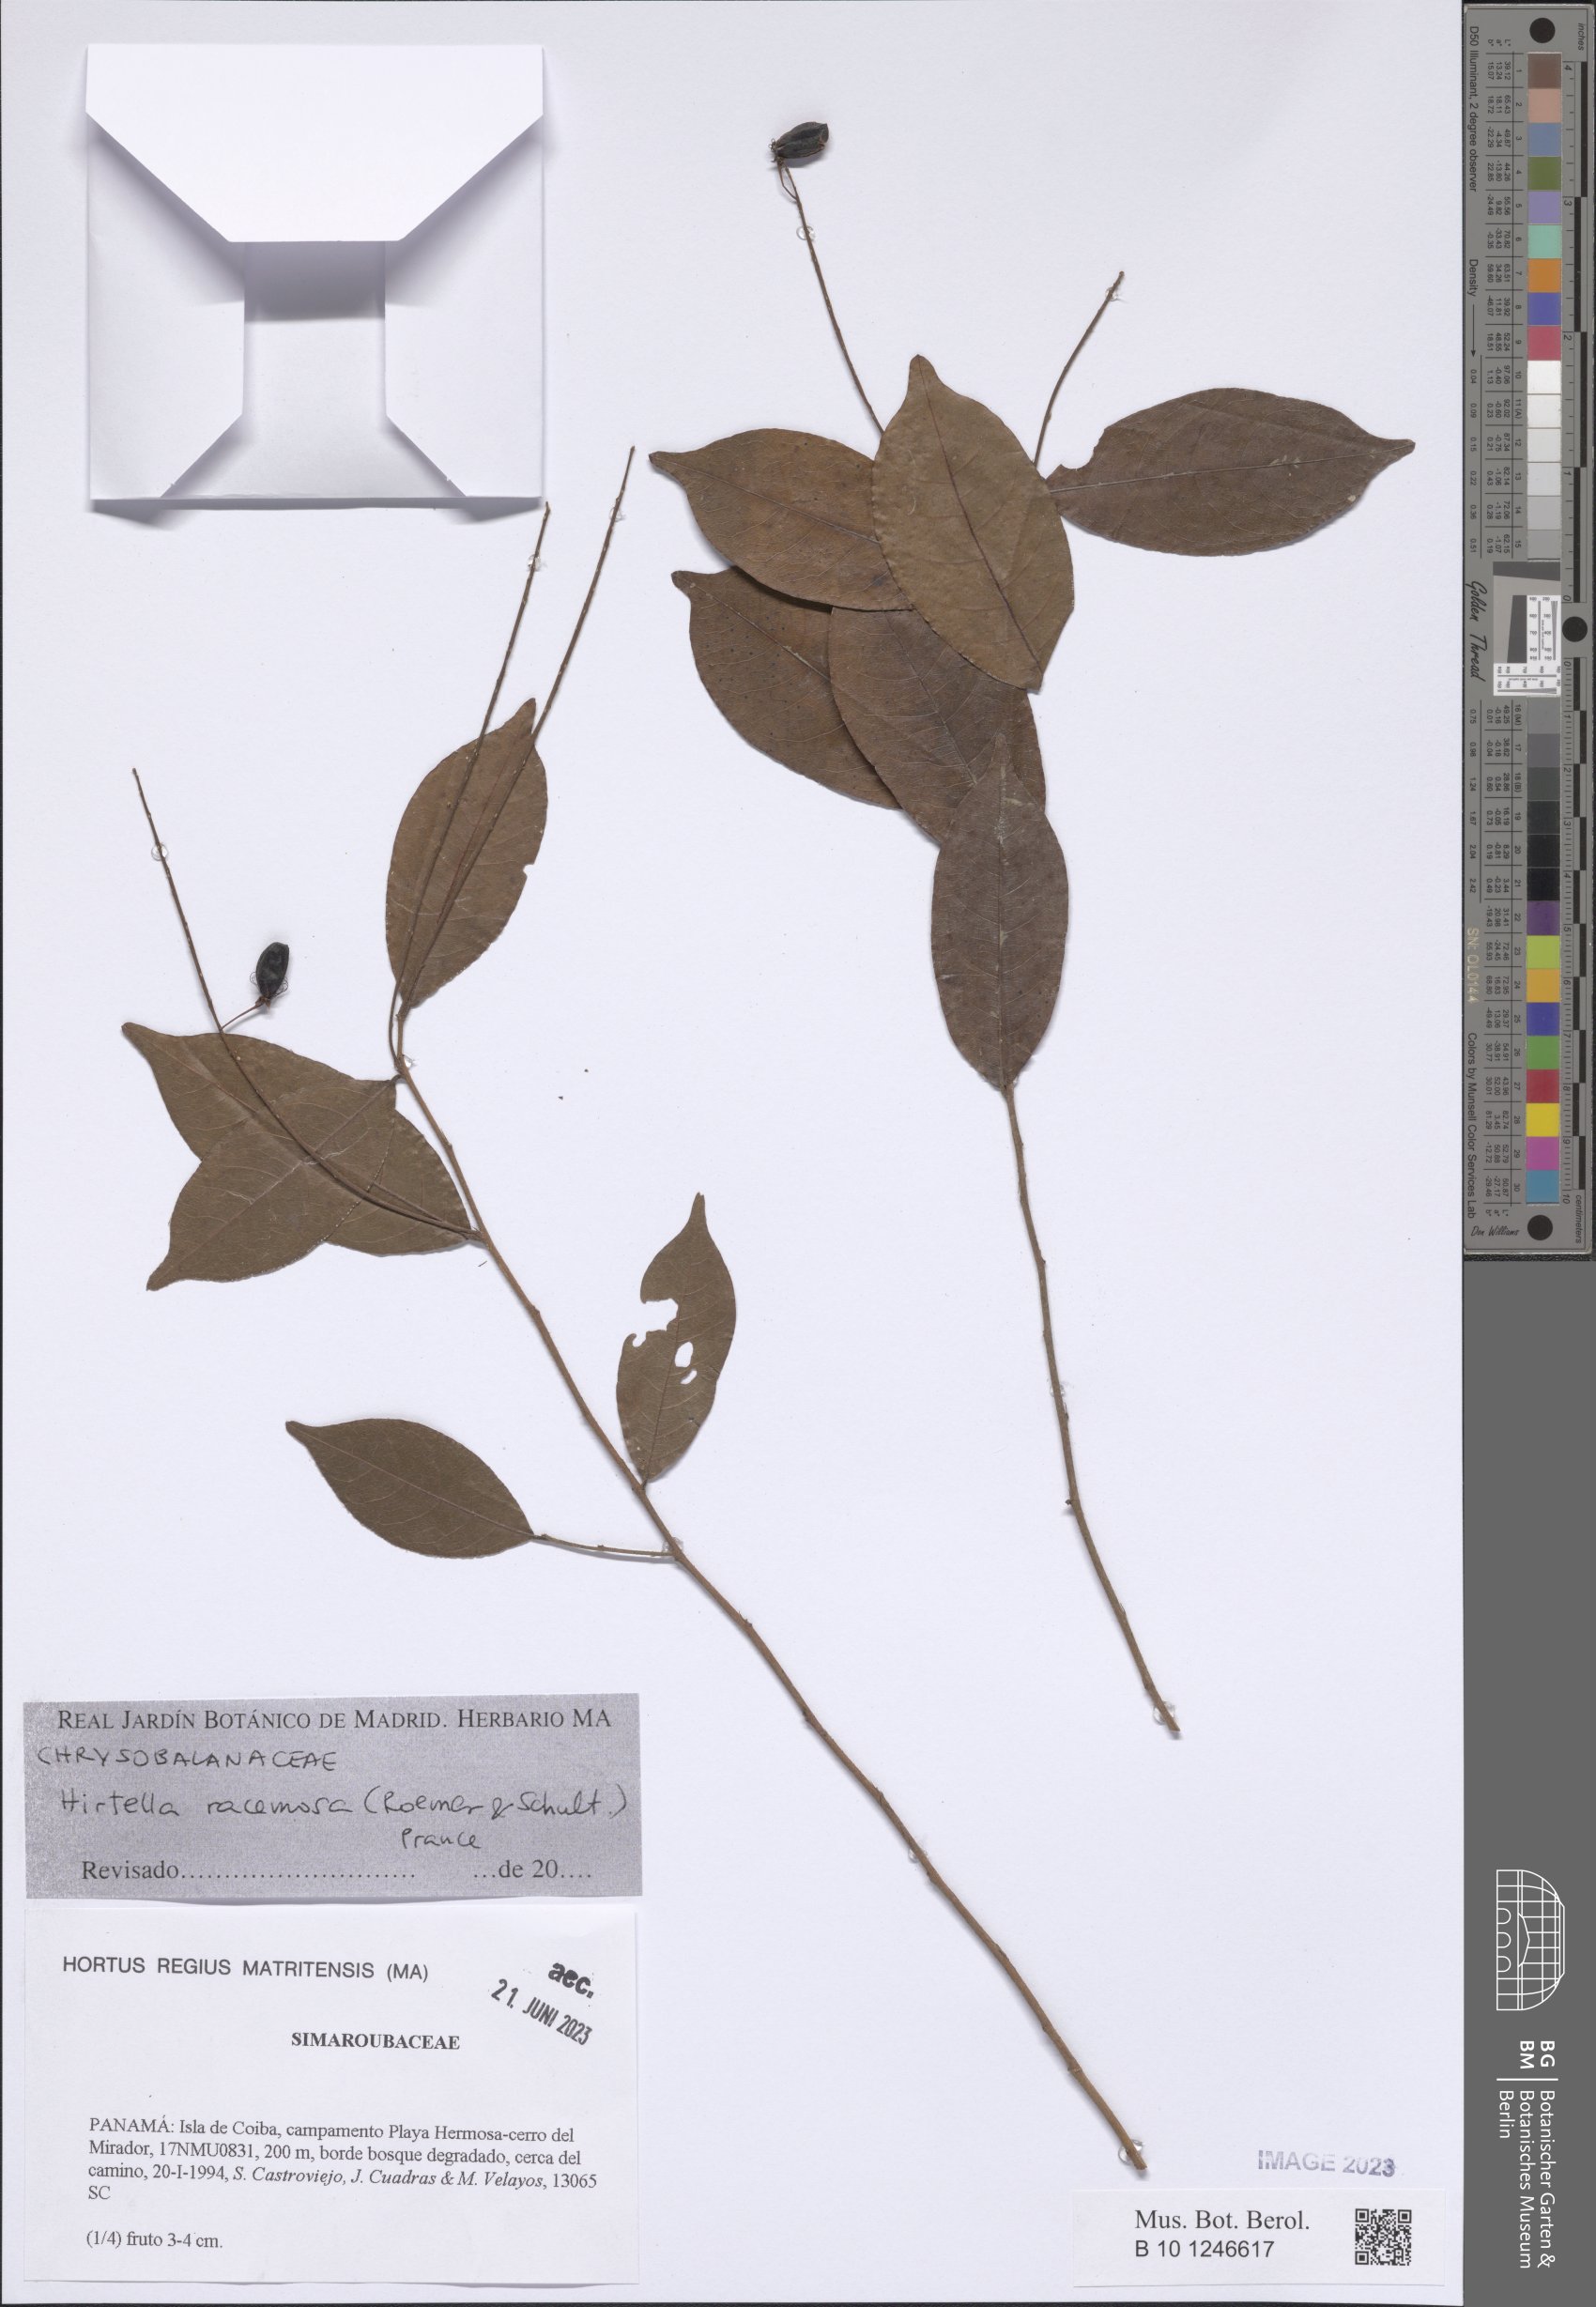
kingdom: Plantae
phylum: Tracheophyta
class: Magnoliopsida
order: Malpighiales
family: Chrysobalanaceae
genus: Hirtella
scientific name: Hirtella racemosa
